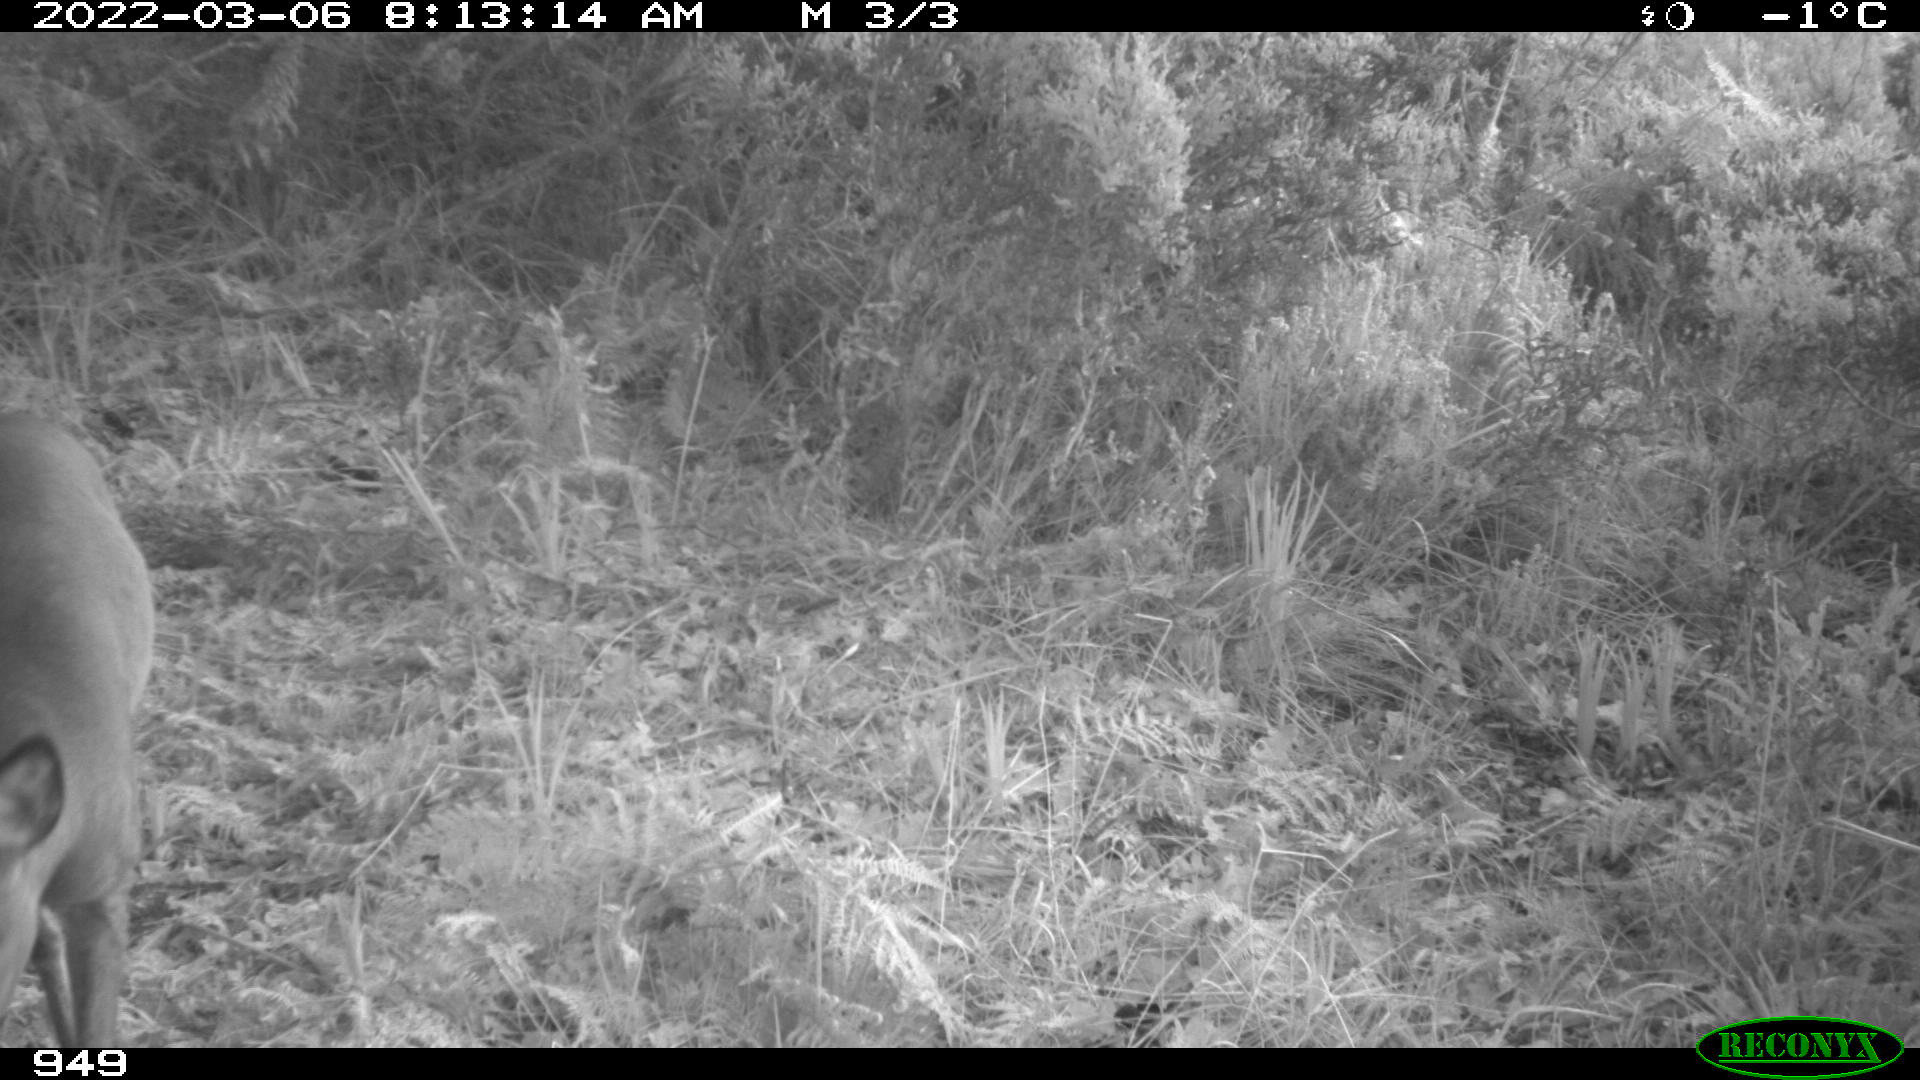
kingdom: Animalia
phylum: Chordata
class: Mammalia
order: Artiodactyla
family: Cervidae
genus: Capreolus
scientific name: Capreolus capreolus
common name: Western roe deer
